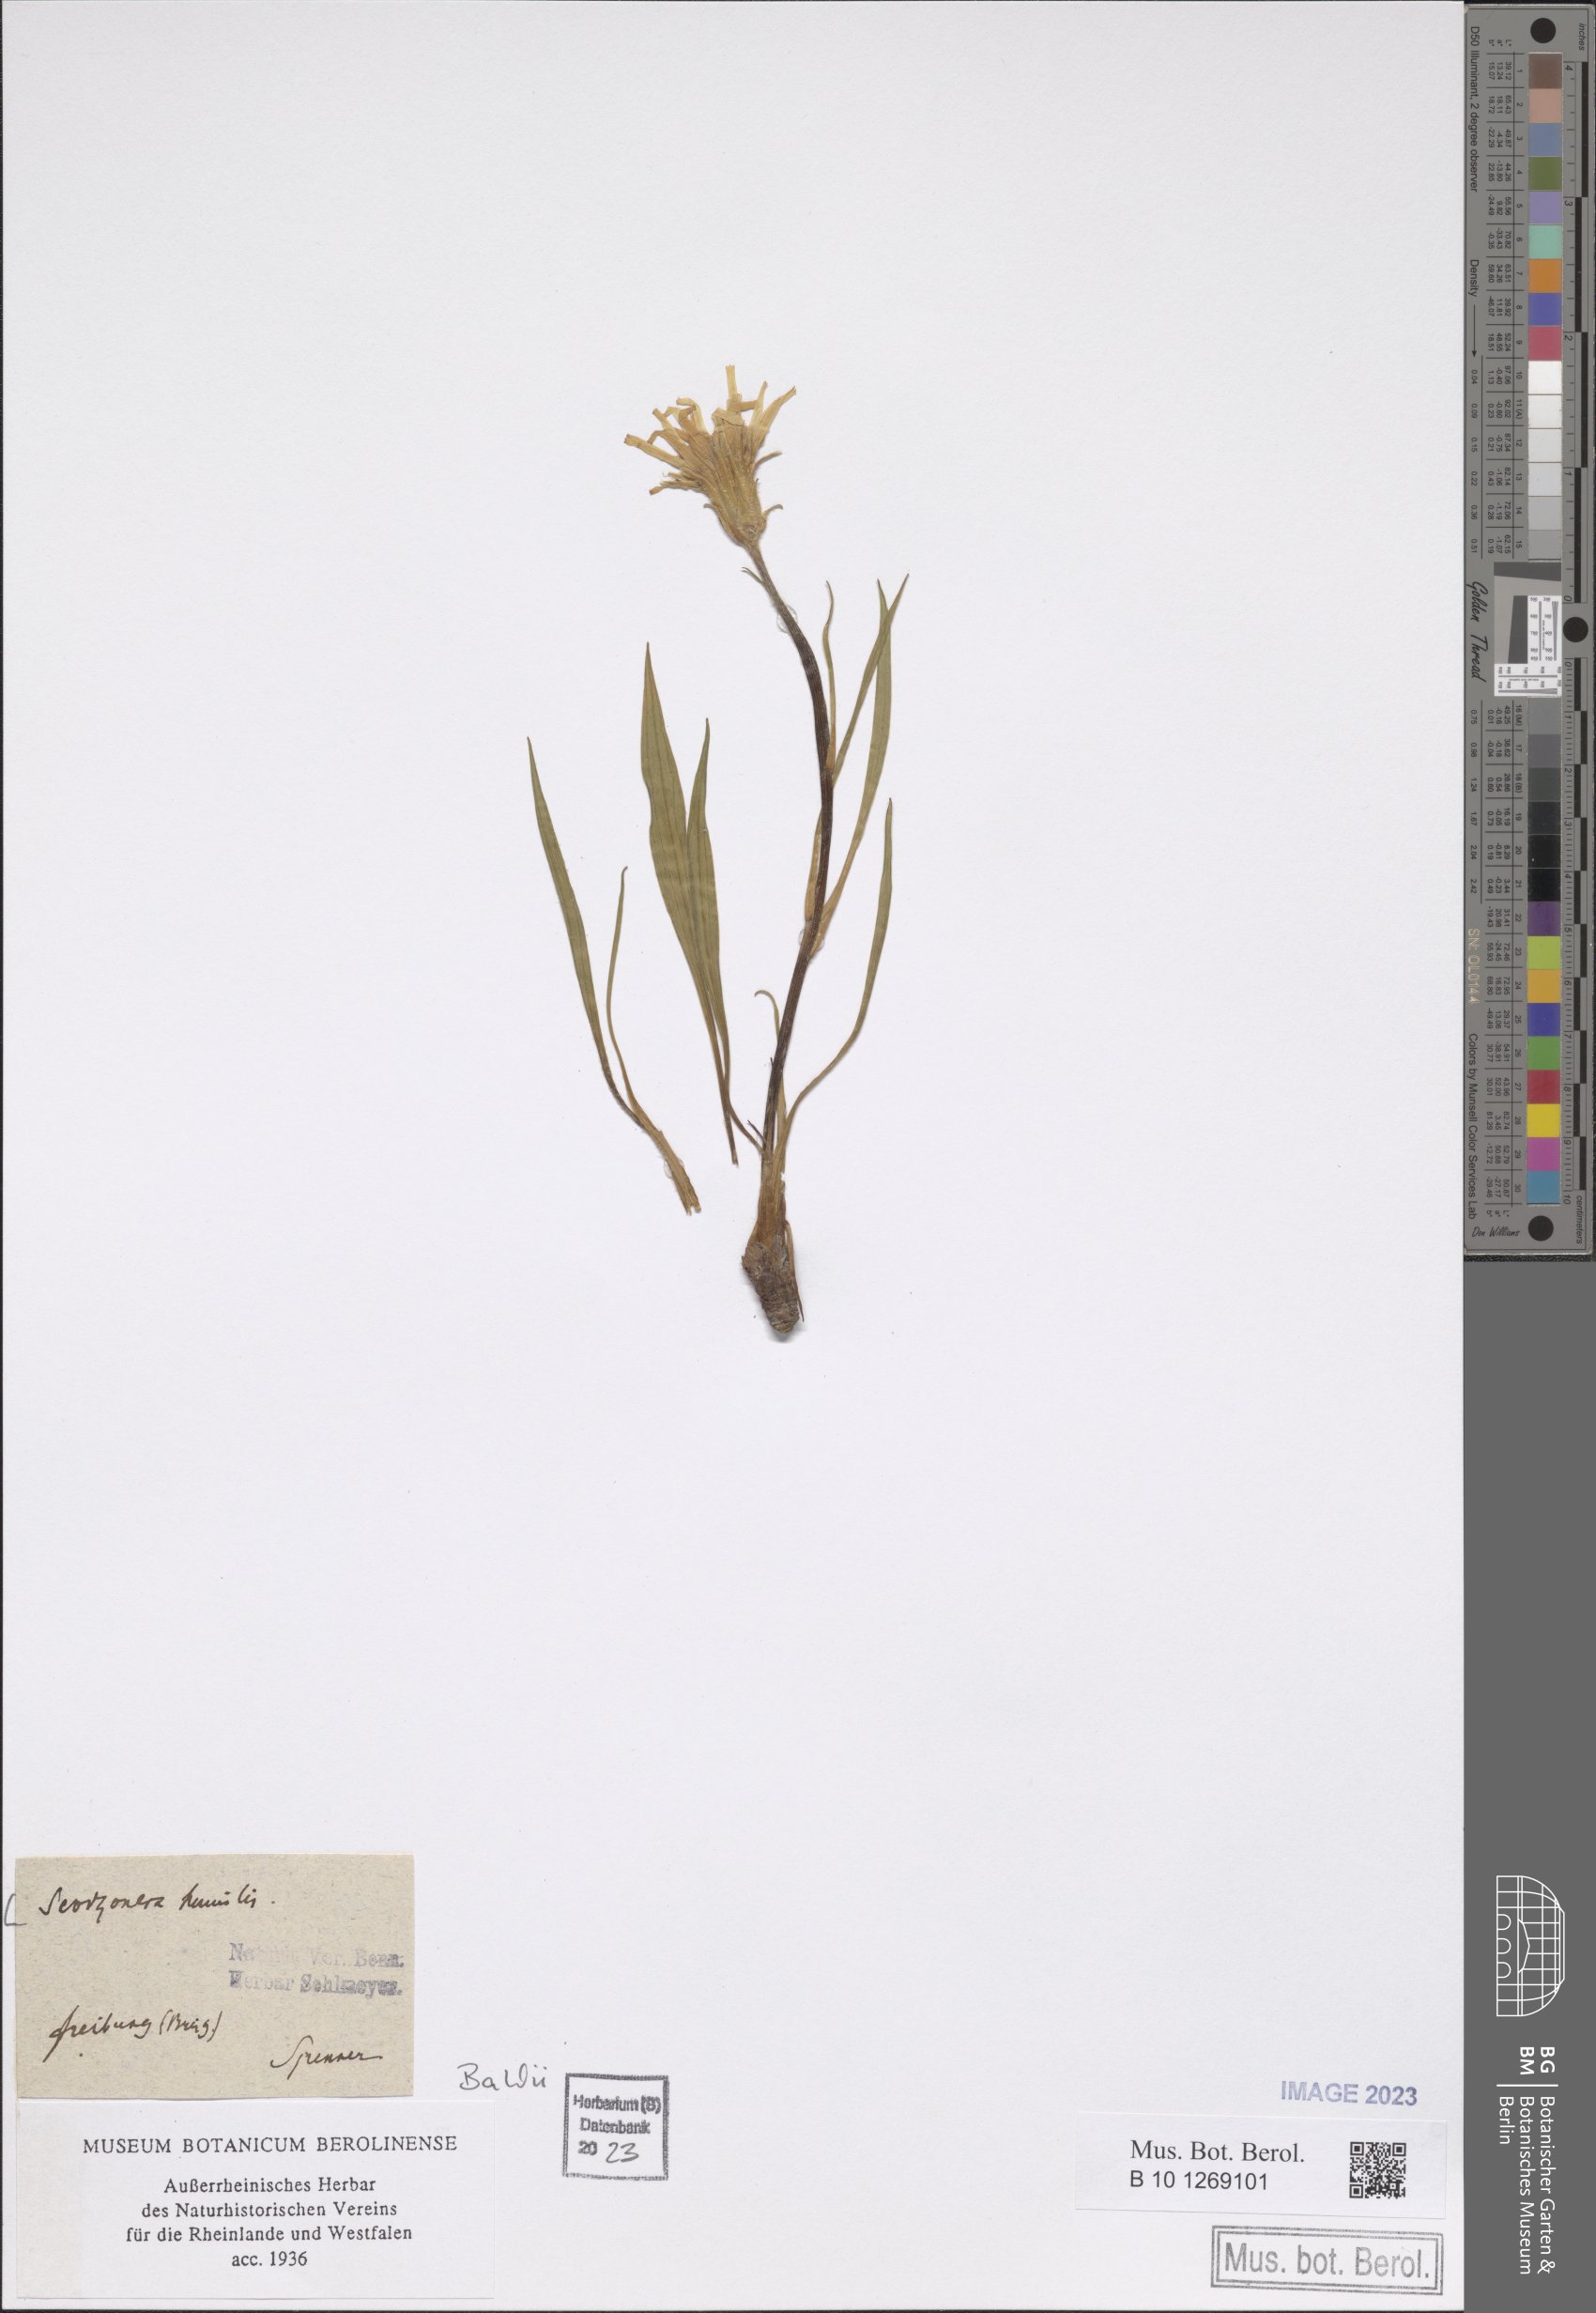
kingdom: Plantae
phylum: Tracheophyta
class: Magnoliopsida
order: Asterales
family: Asteraceae
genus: Scorzonera
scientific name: Scorzonera humilis
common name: Viper's-grass
